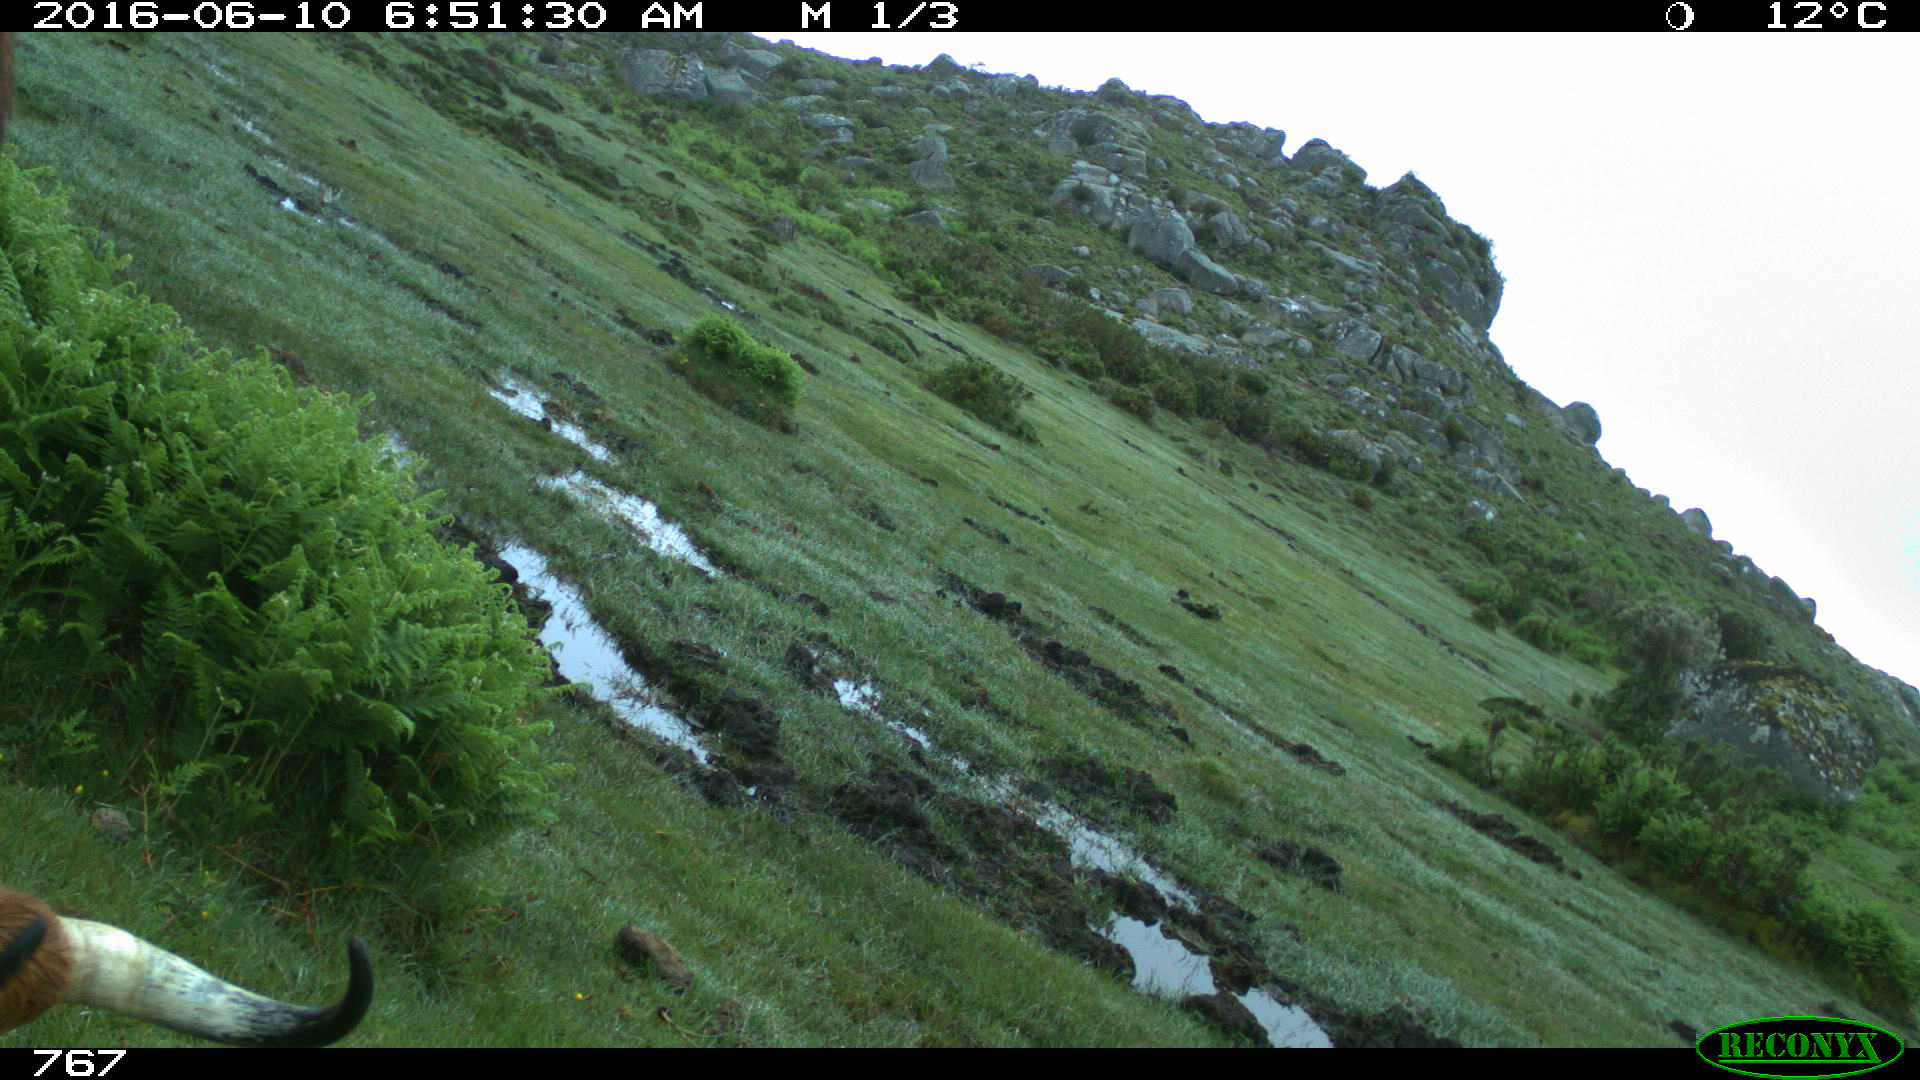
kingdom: Animalia
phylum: Chordata
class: Mammalia
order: Artiodactyla
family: Bovidae
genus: Bos
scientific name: Bos taurus
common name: Domesticated cattle
